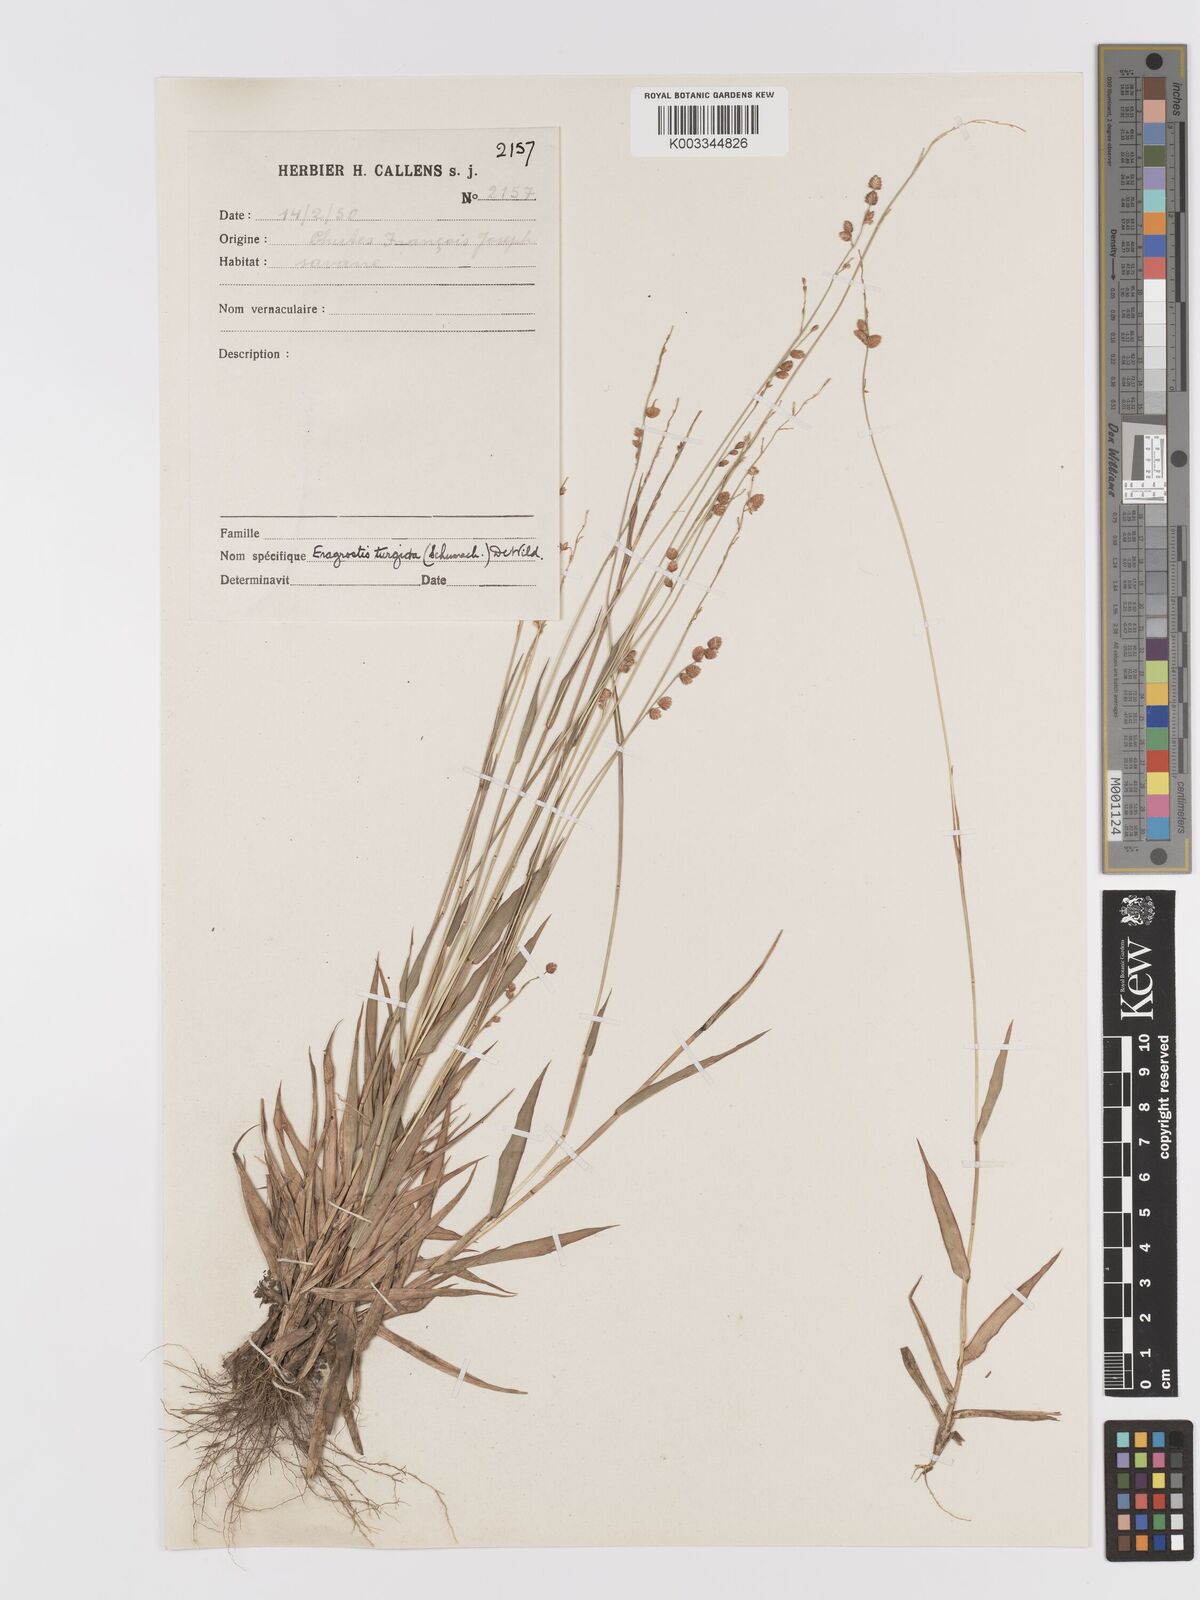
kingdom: Plantae
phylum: Tracheophyta
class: Liliopsida
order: Poales
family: Poaceae
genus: Eragrostis
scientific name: Eragrostis turgida
